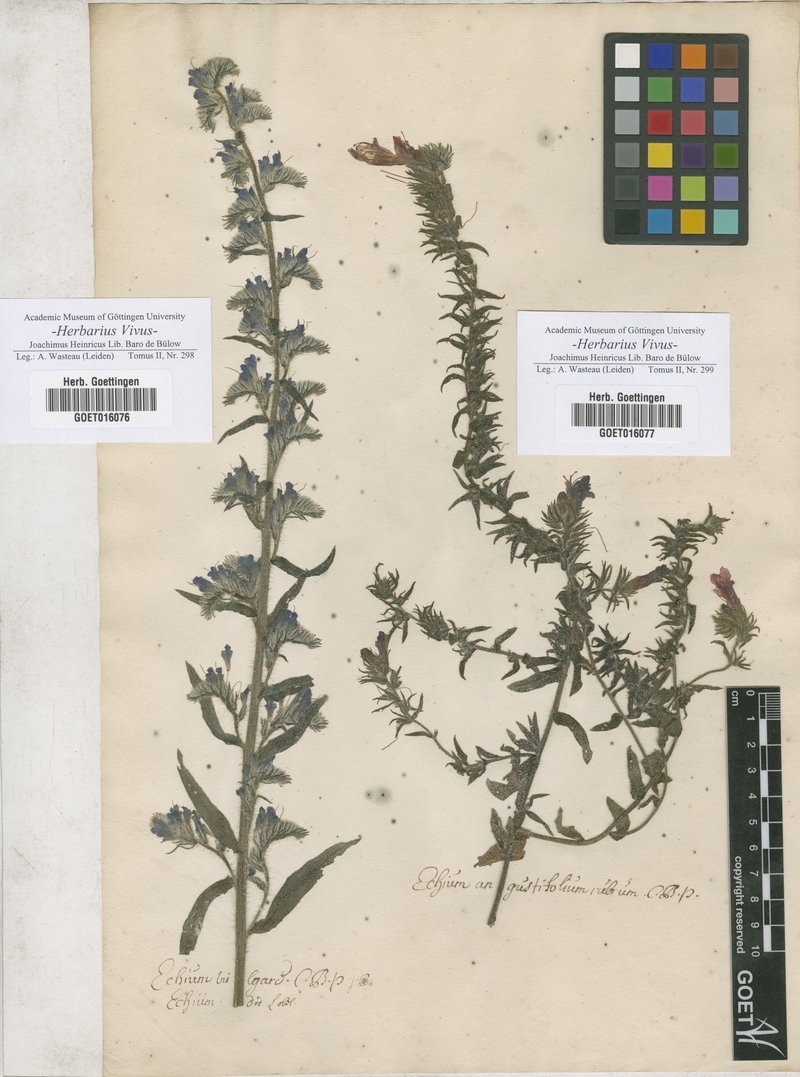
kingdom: Plantae
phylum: Tracheophyta
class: Magnoliopsida
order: Boraginales
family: Boraginaceae
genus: Echium
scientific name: Echium vulgare
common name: Common viper's bugloss
